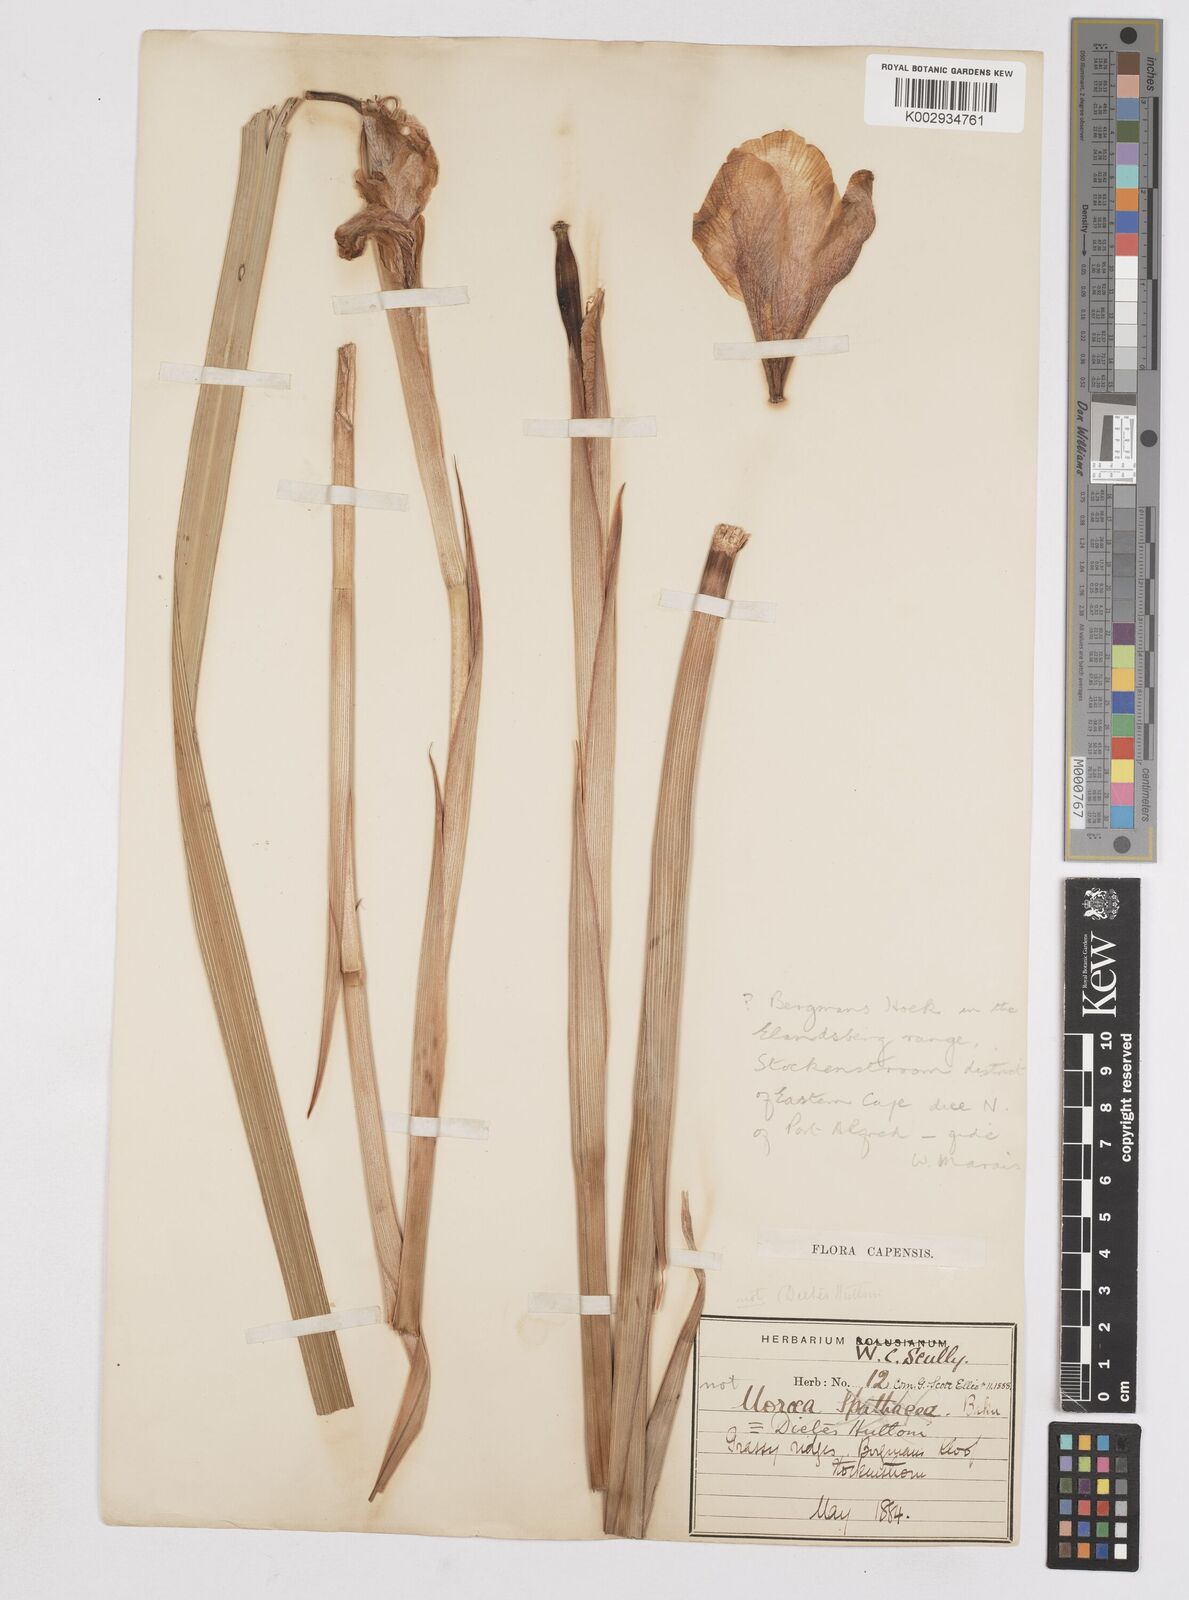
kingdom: Plantae
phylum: Tracheophyta
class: Liliopsida
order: Asparagales
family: Iridaceae
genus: Moraea
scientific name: Moraea spathulata
